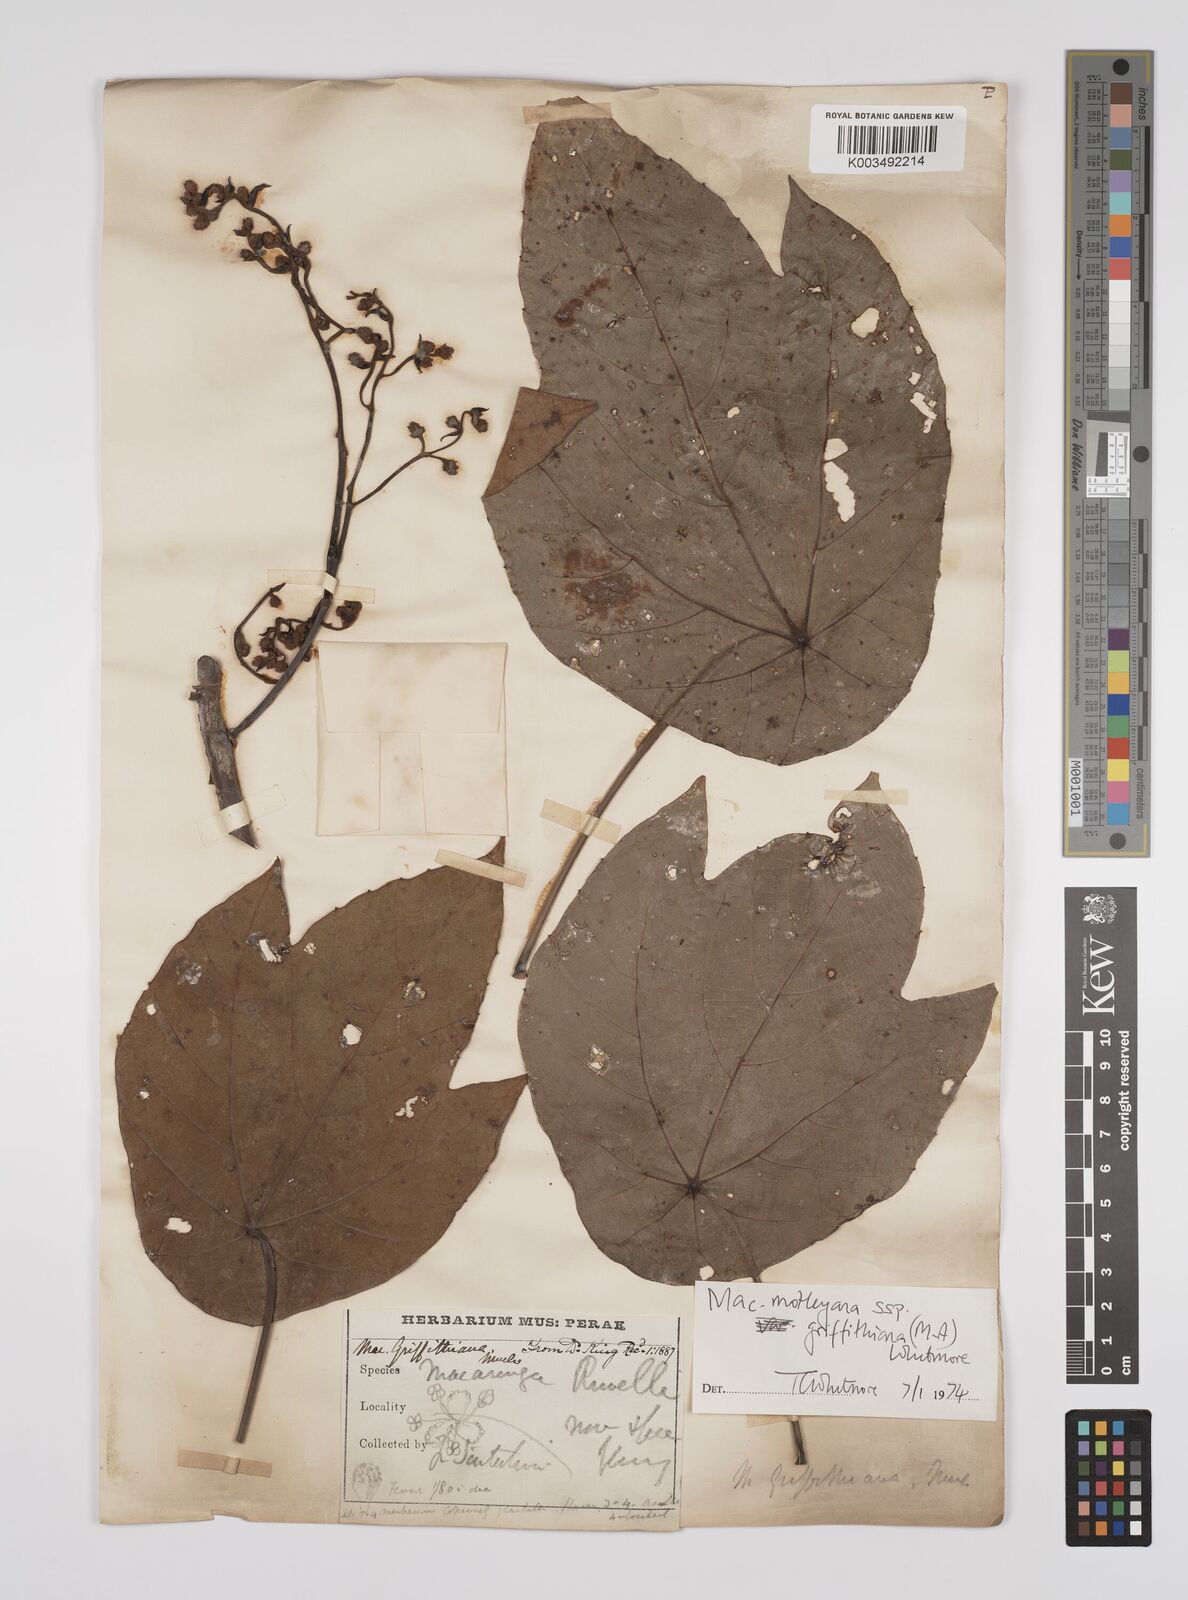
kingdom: Plantae
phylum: Tracheophyta
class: Magnoliopsida
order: Malpighiales
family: Euphorbiaceae
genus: Macaranga
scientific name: Macaranga griffithiana
